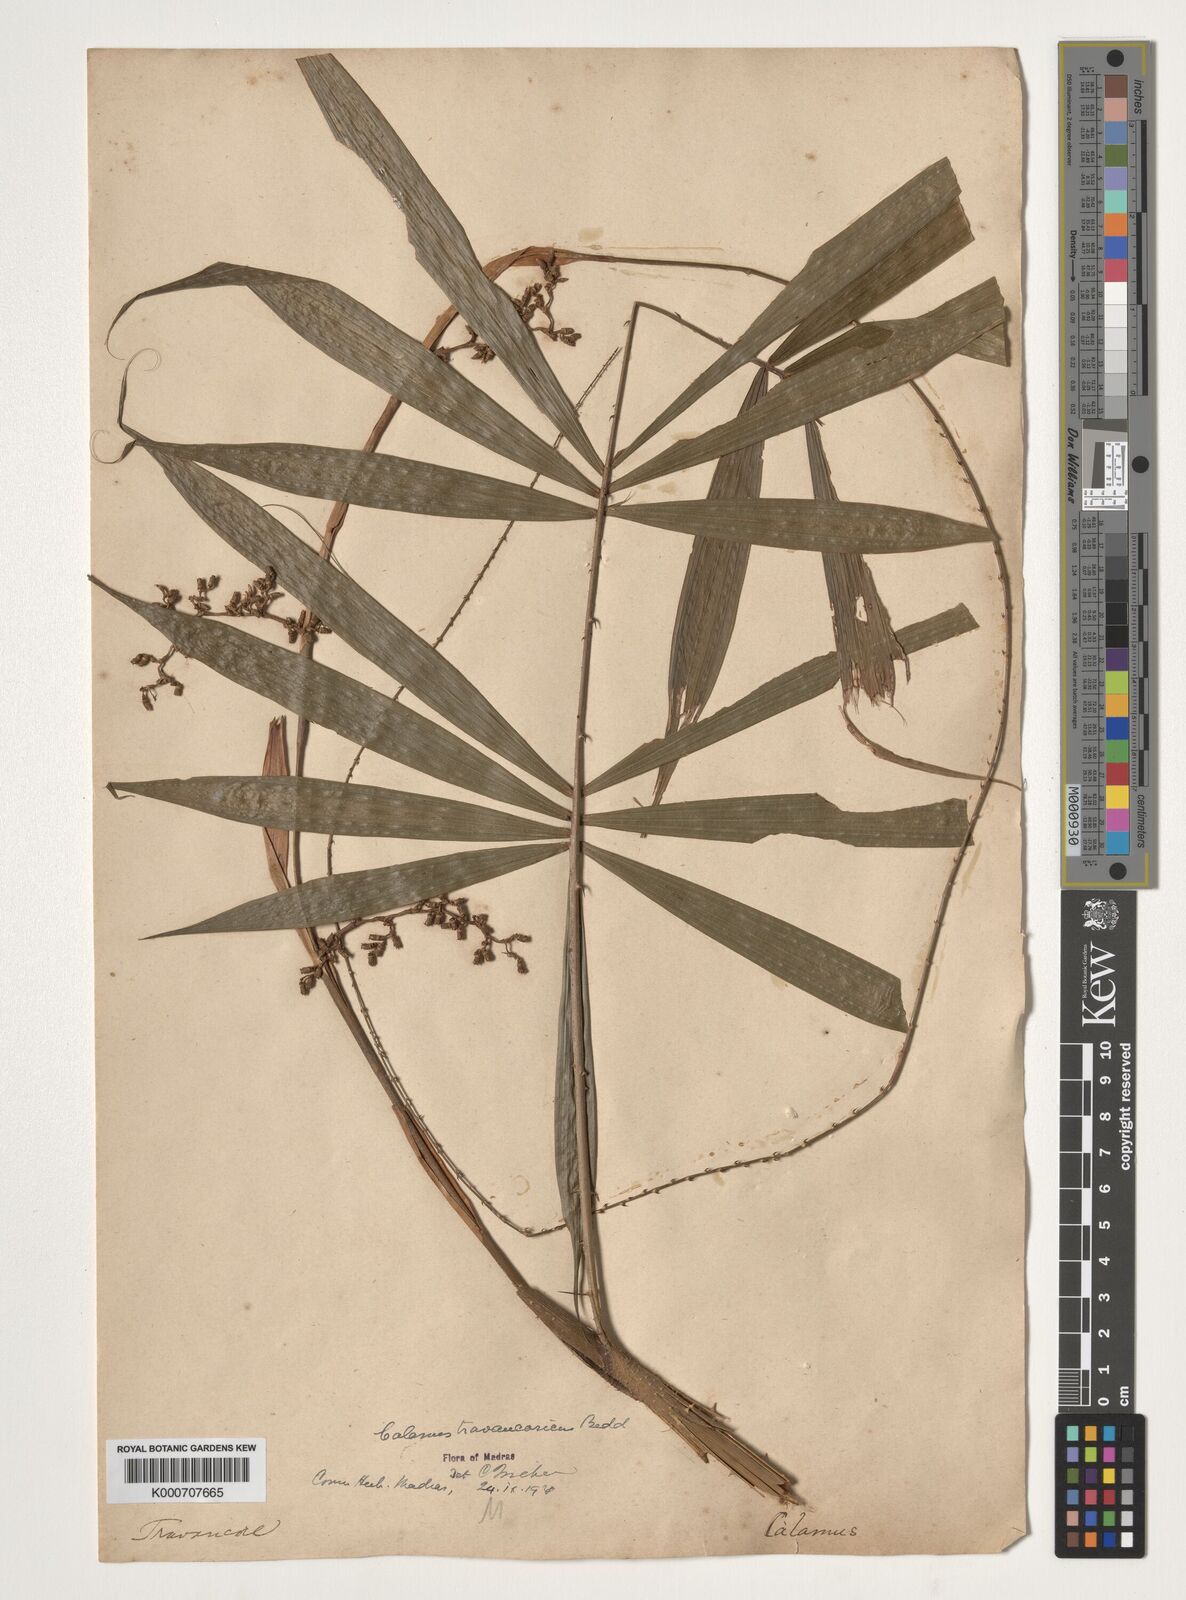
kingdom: Plantae
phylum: Tracheophyta
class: Liliopsida
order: Arecales
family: Arecaceae
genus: Calamus
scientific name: Calamus rheedei
